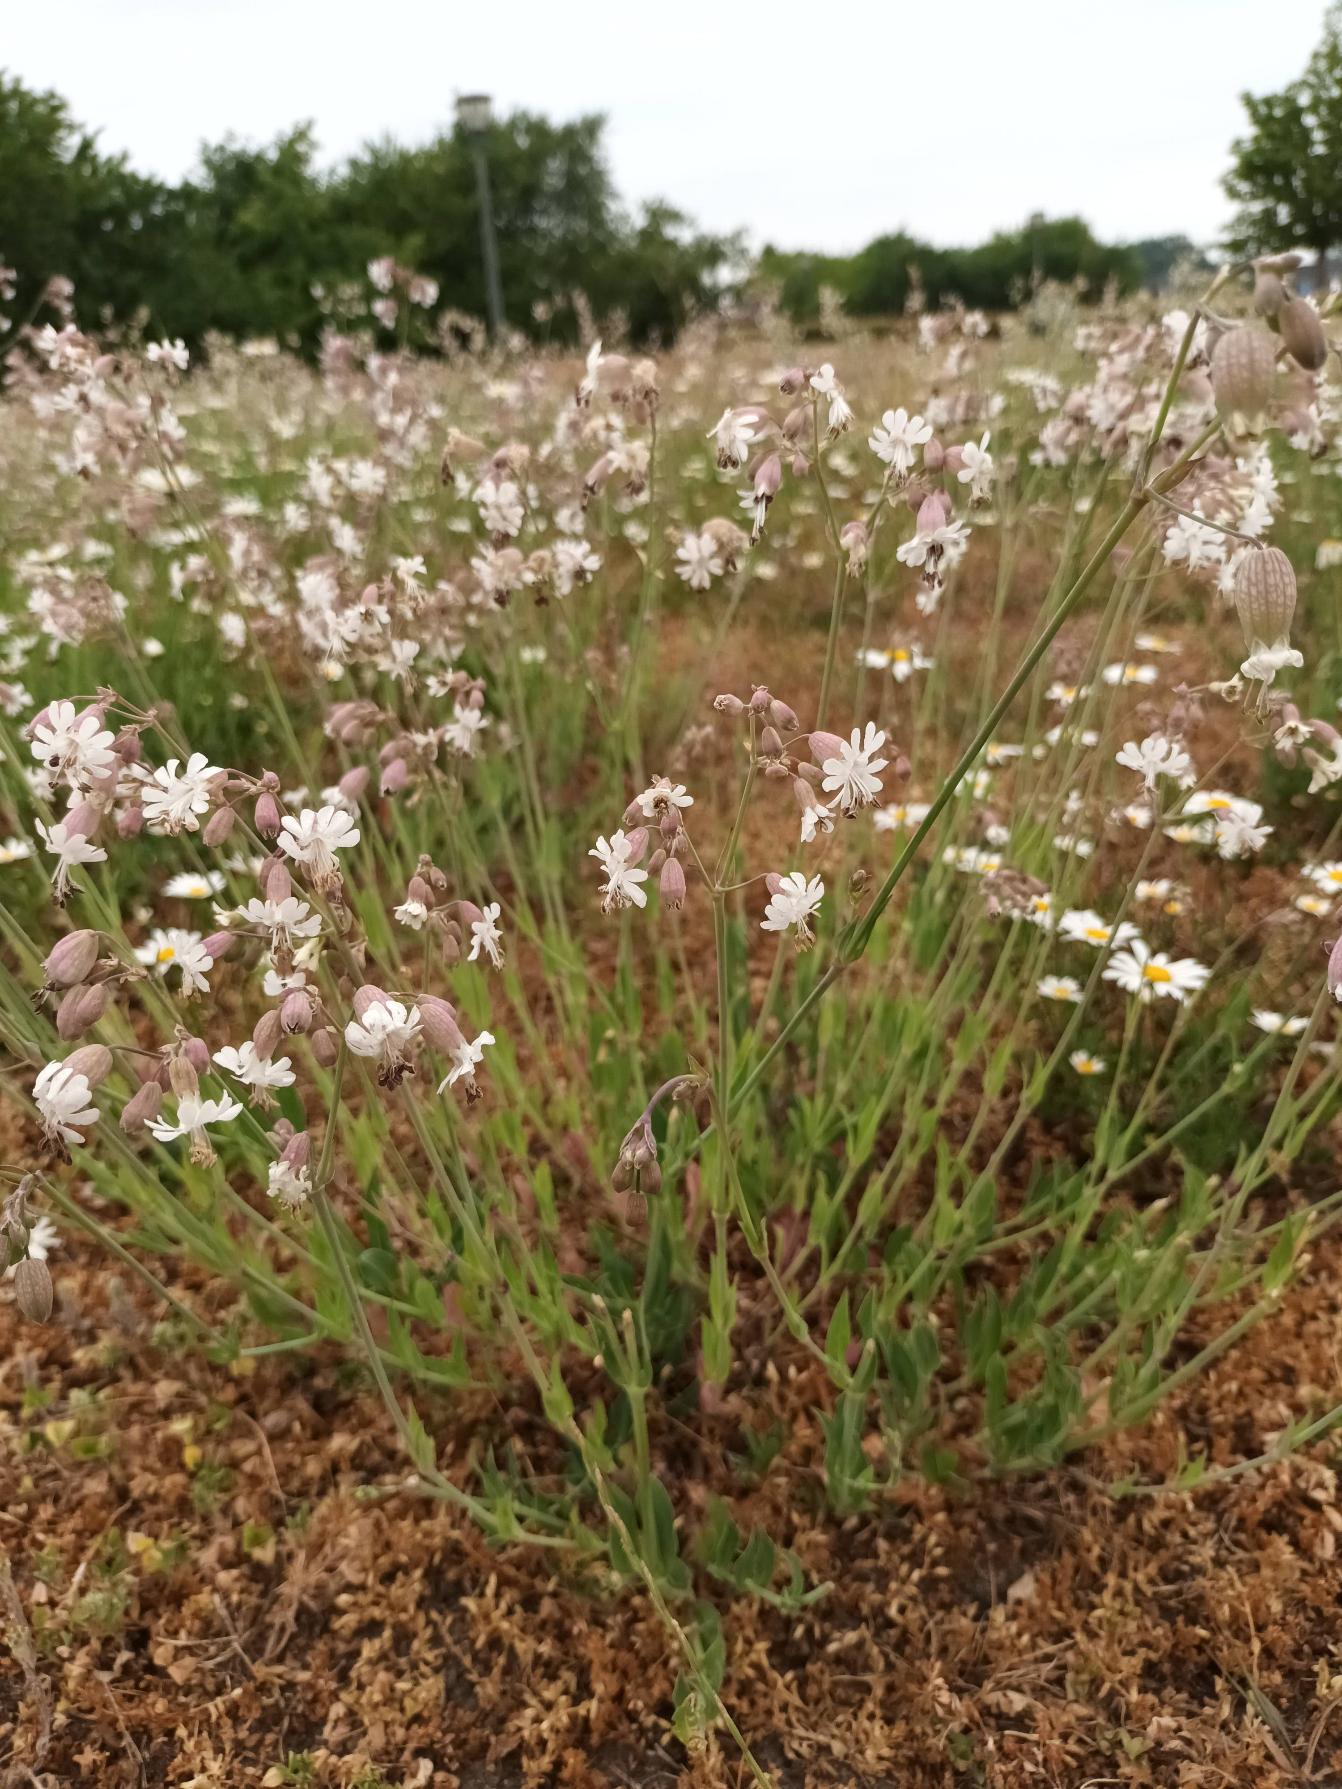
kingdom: Plantae
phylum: Tracheophyta
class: Magnoliopsida
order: Caryophyllales
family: Caryophyllaceae
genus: Silene
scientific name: Silene vulgaris
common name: Blæresmælde
